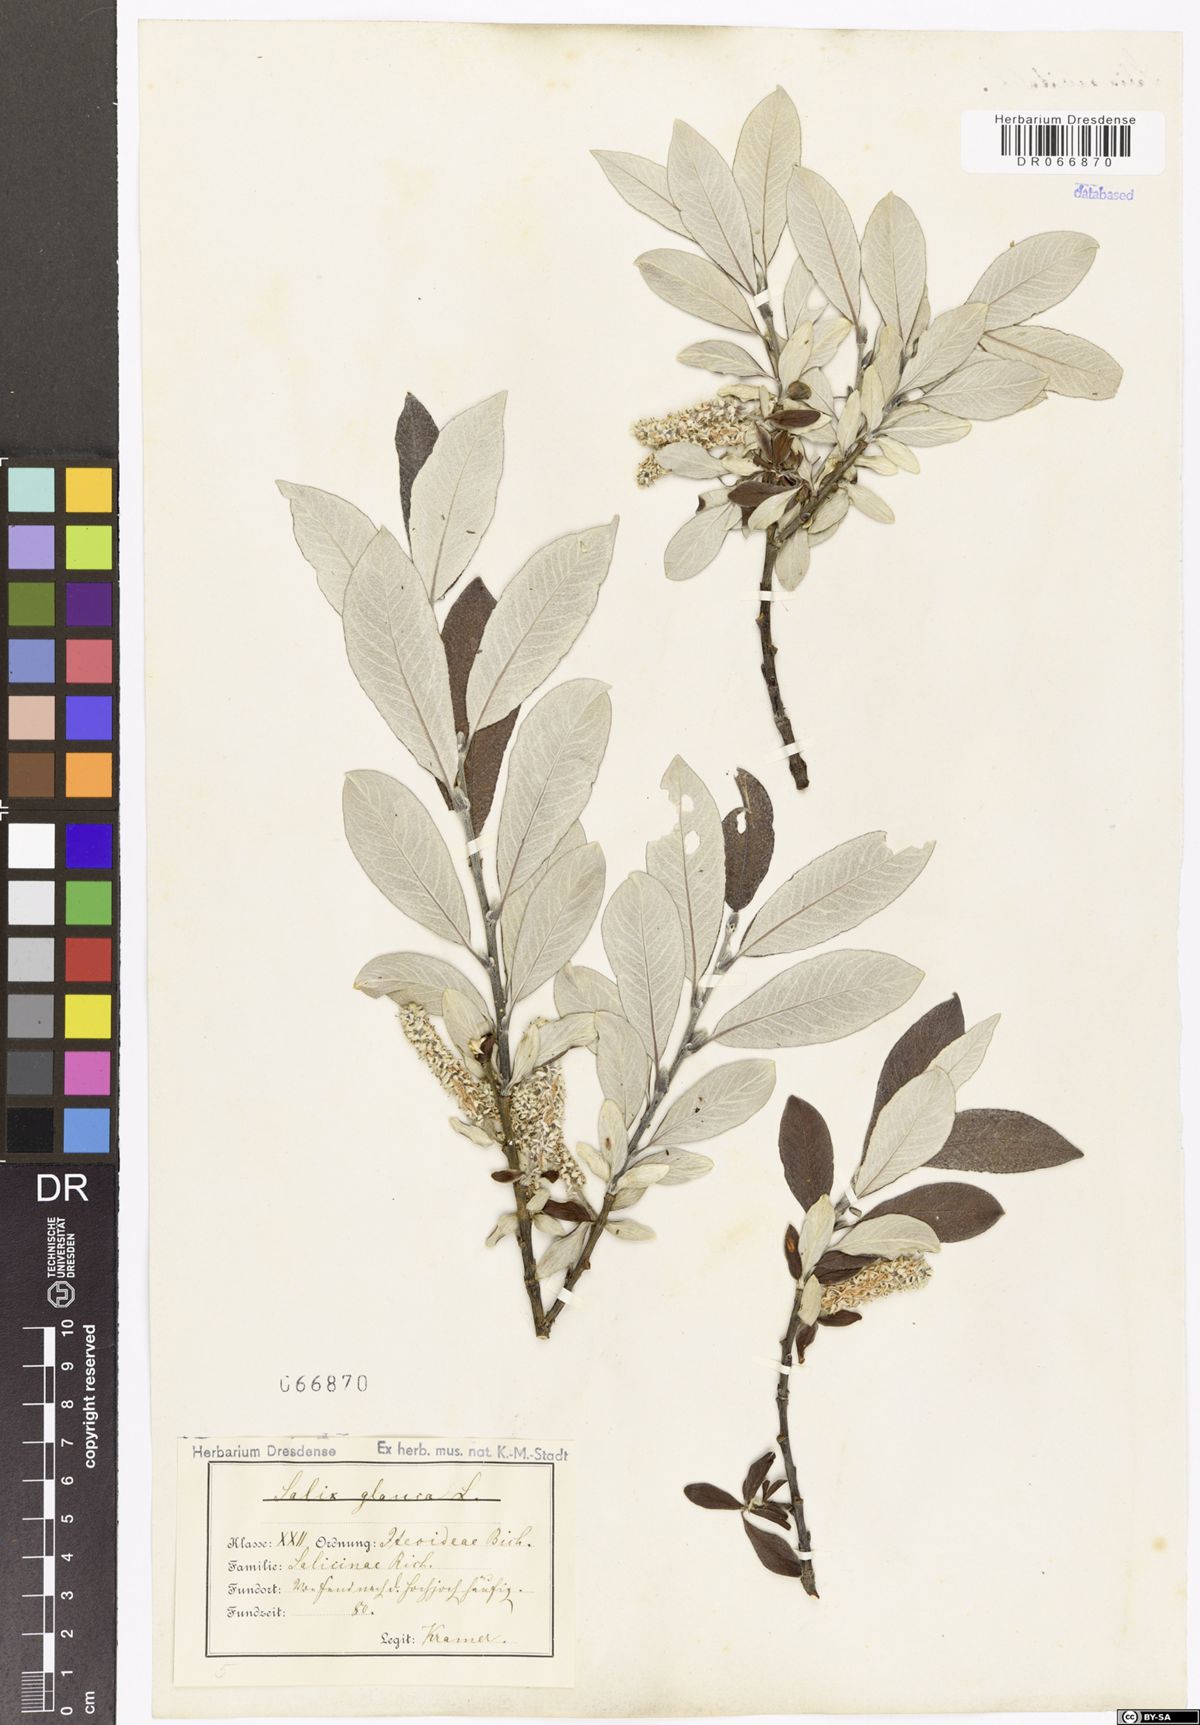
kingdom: Plantae
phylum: Tracheophyta
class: Magnoliopsida
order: Malpighiales
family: Salicaceae
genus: Salix
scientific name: Salix glauca
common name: Glaucous willow
